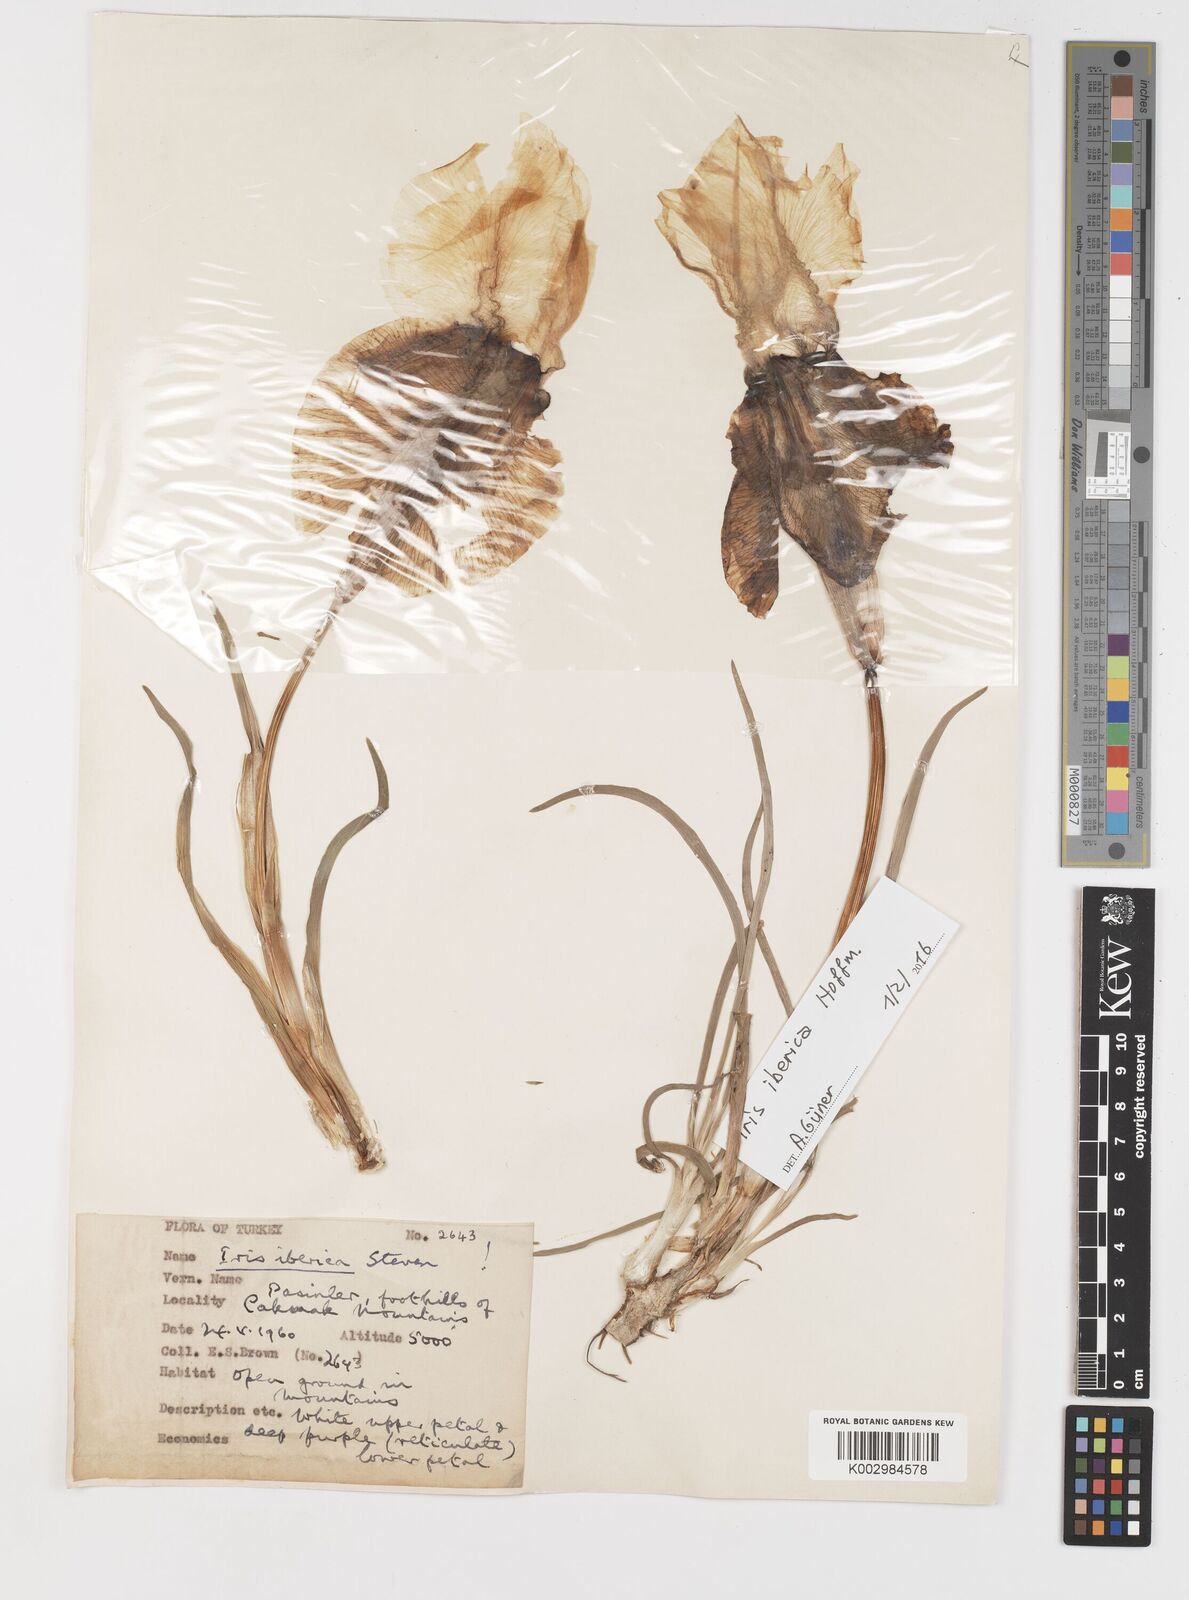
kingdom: Plantae
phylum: Tracheophyta
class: Liliopsida
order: Asparagales
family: Iridaceae
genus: Iris
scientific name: Iris iberica
